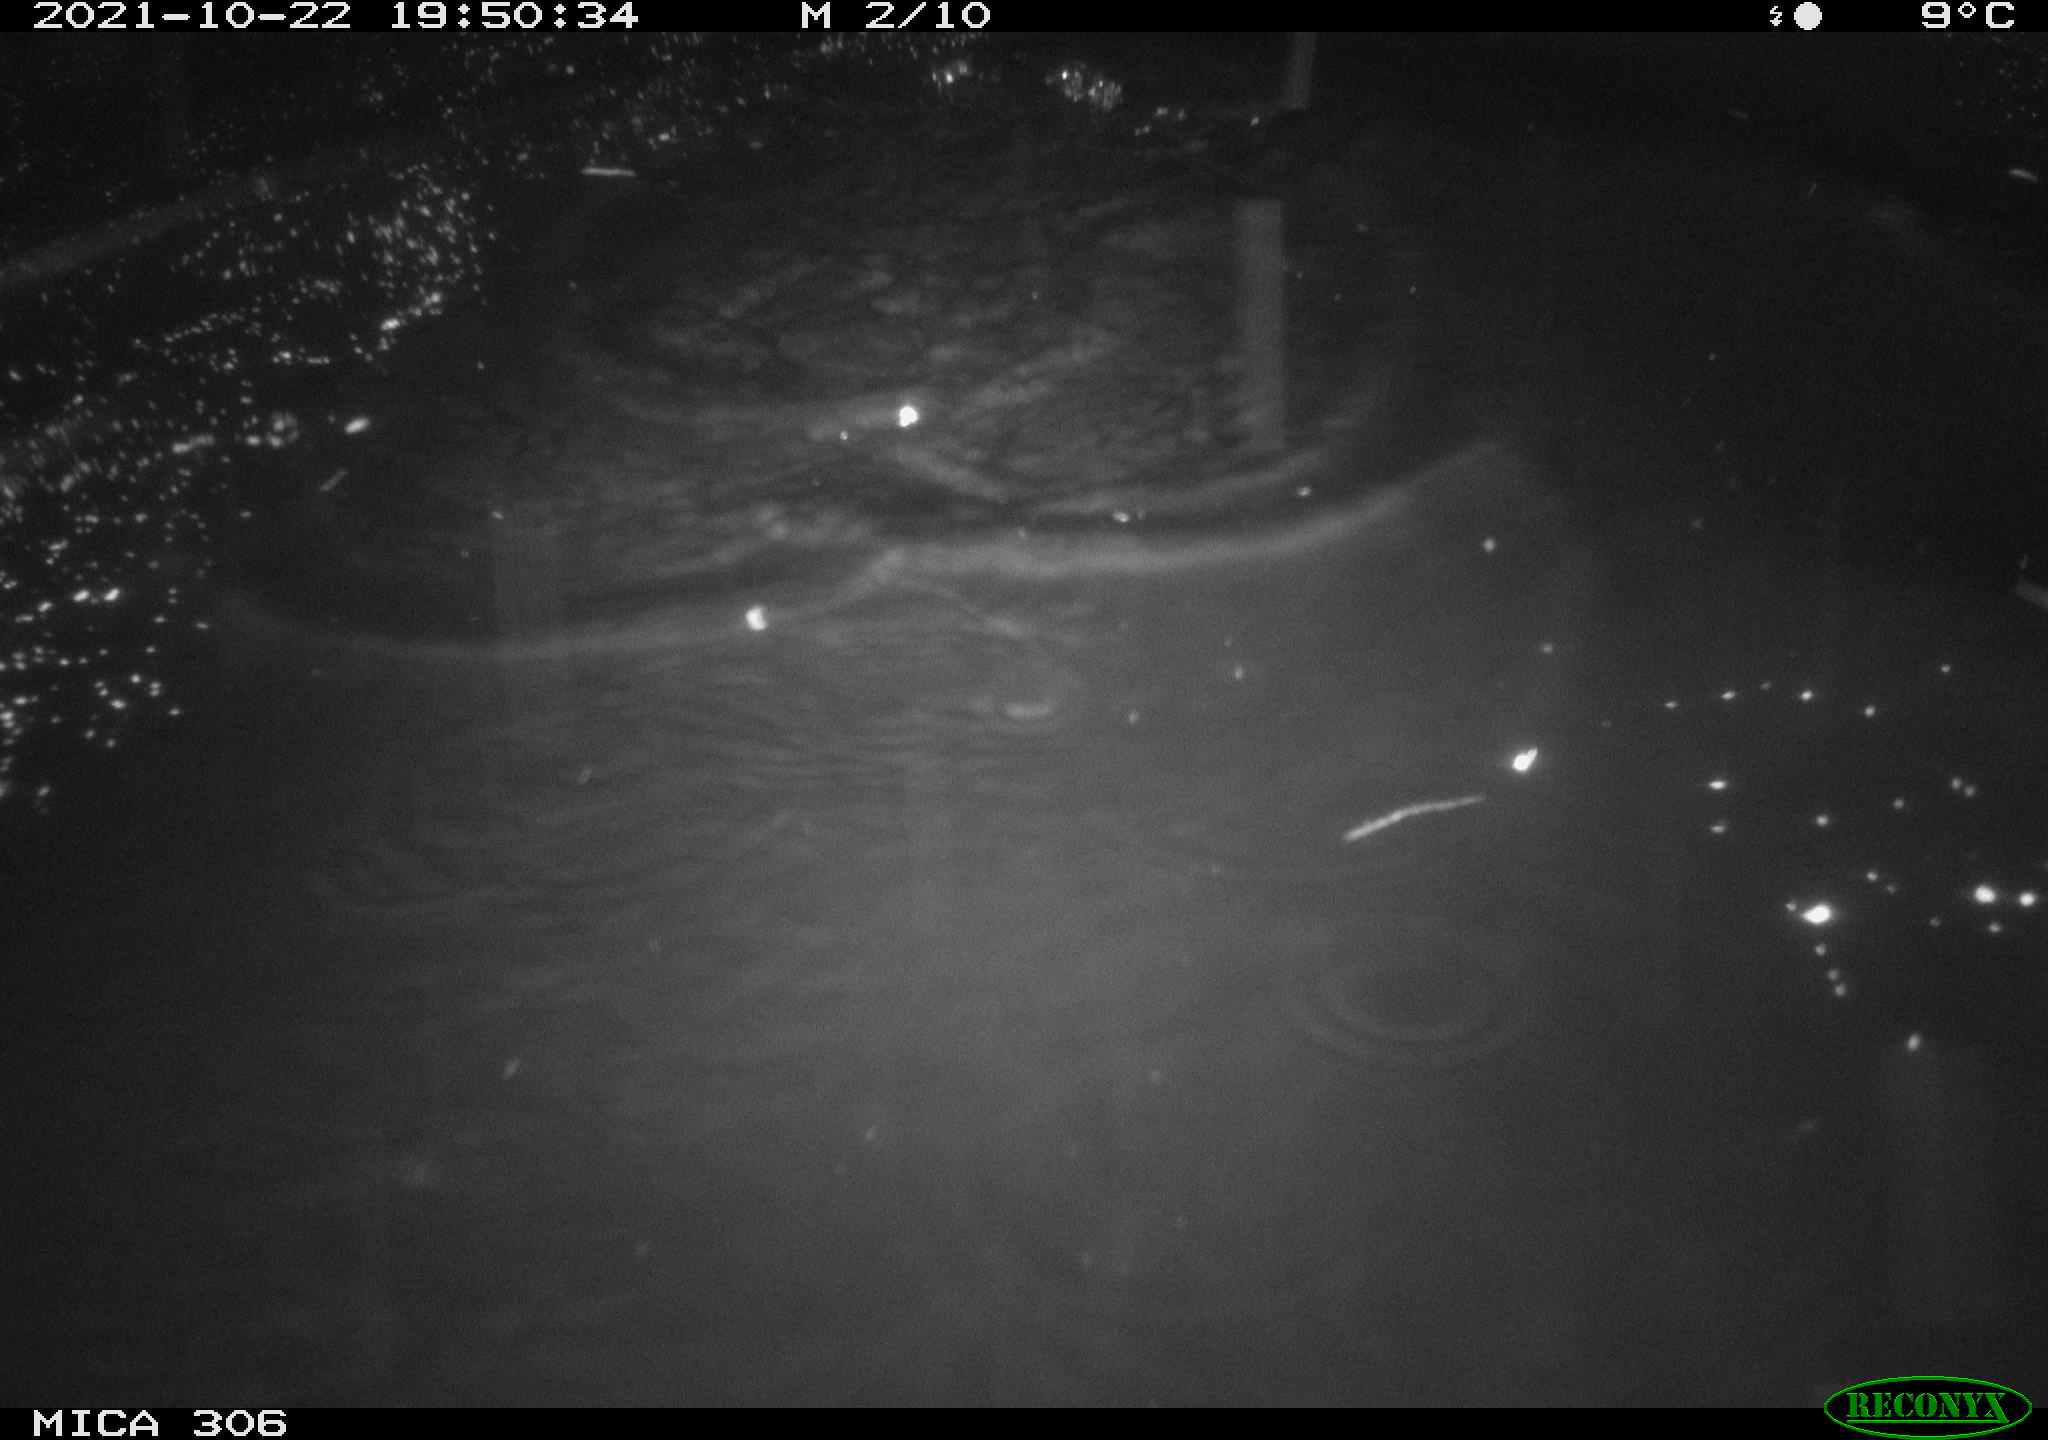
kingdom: Animalia
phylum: Chordata
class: Mammalia
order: Rodentia
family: Cricetidae
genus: Ondatra
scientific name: Ondatra zibethicus
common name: Muskrat
